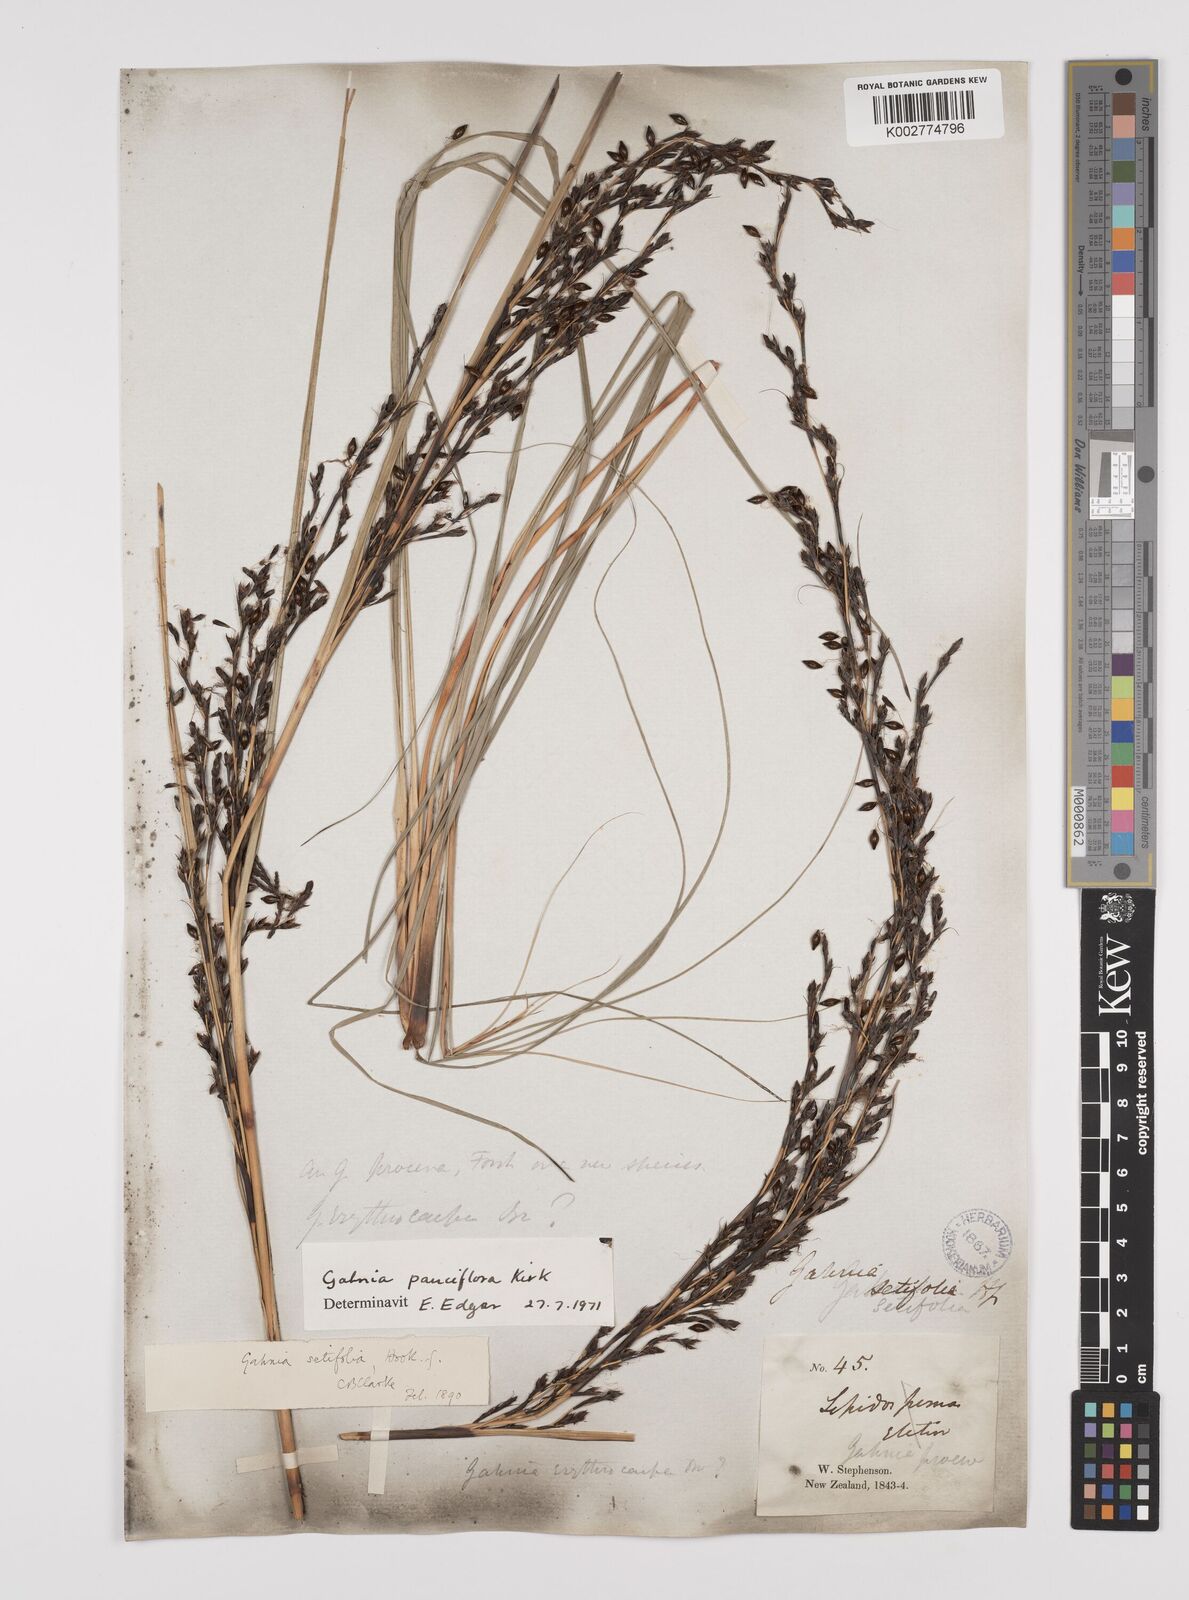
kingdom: Plantae
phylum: Tracheophyta
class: Liliopsida
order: Poales
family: Cyperaceae
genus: Gahnia
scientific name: Gahnia pauciflora
